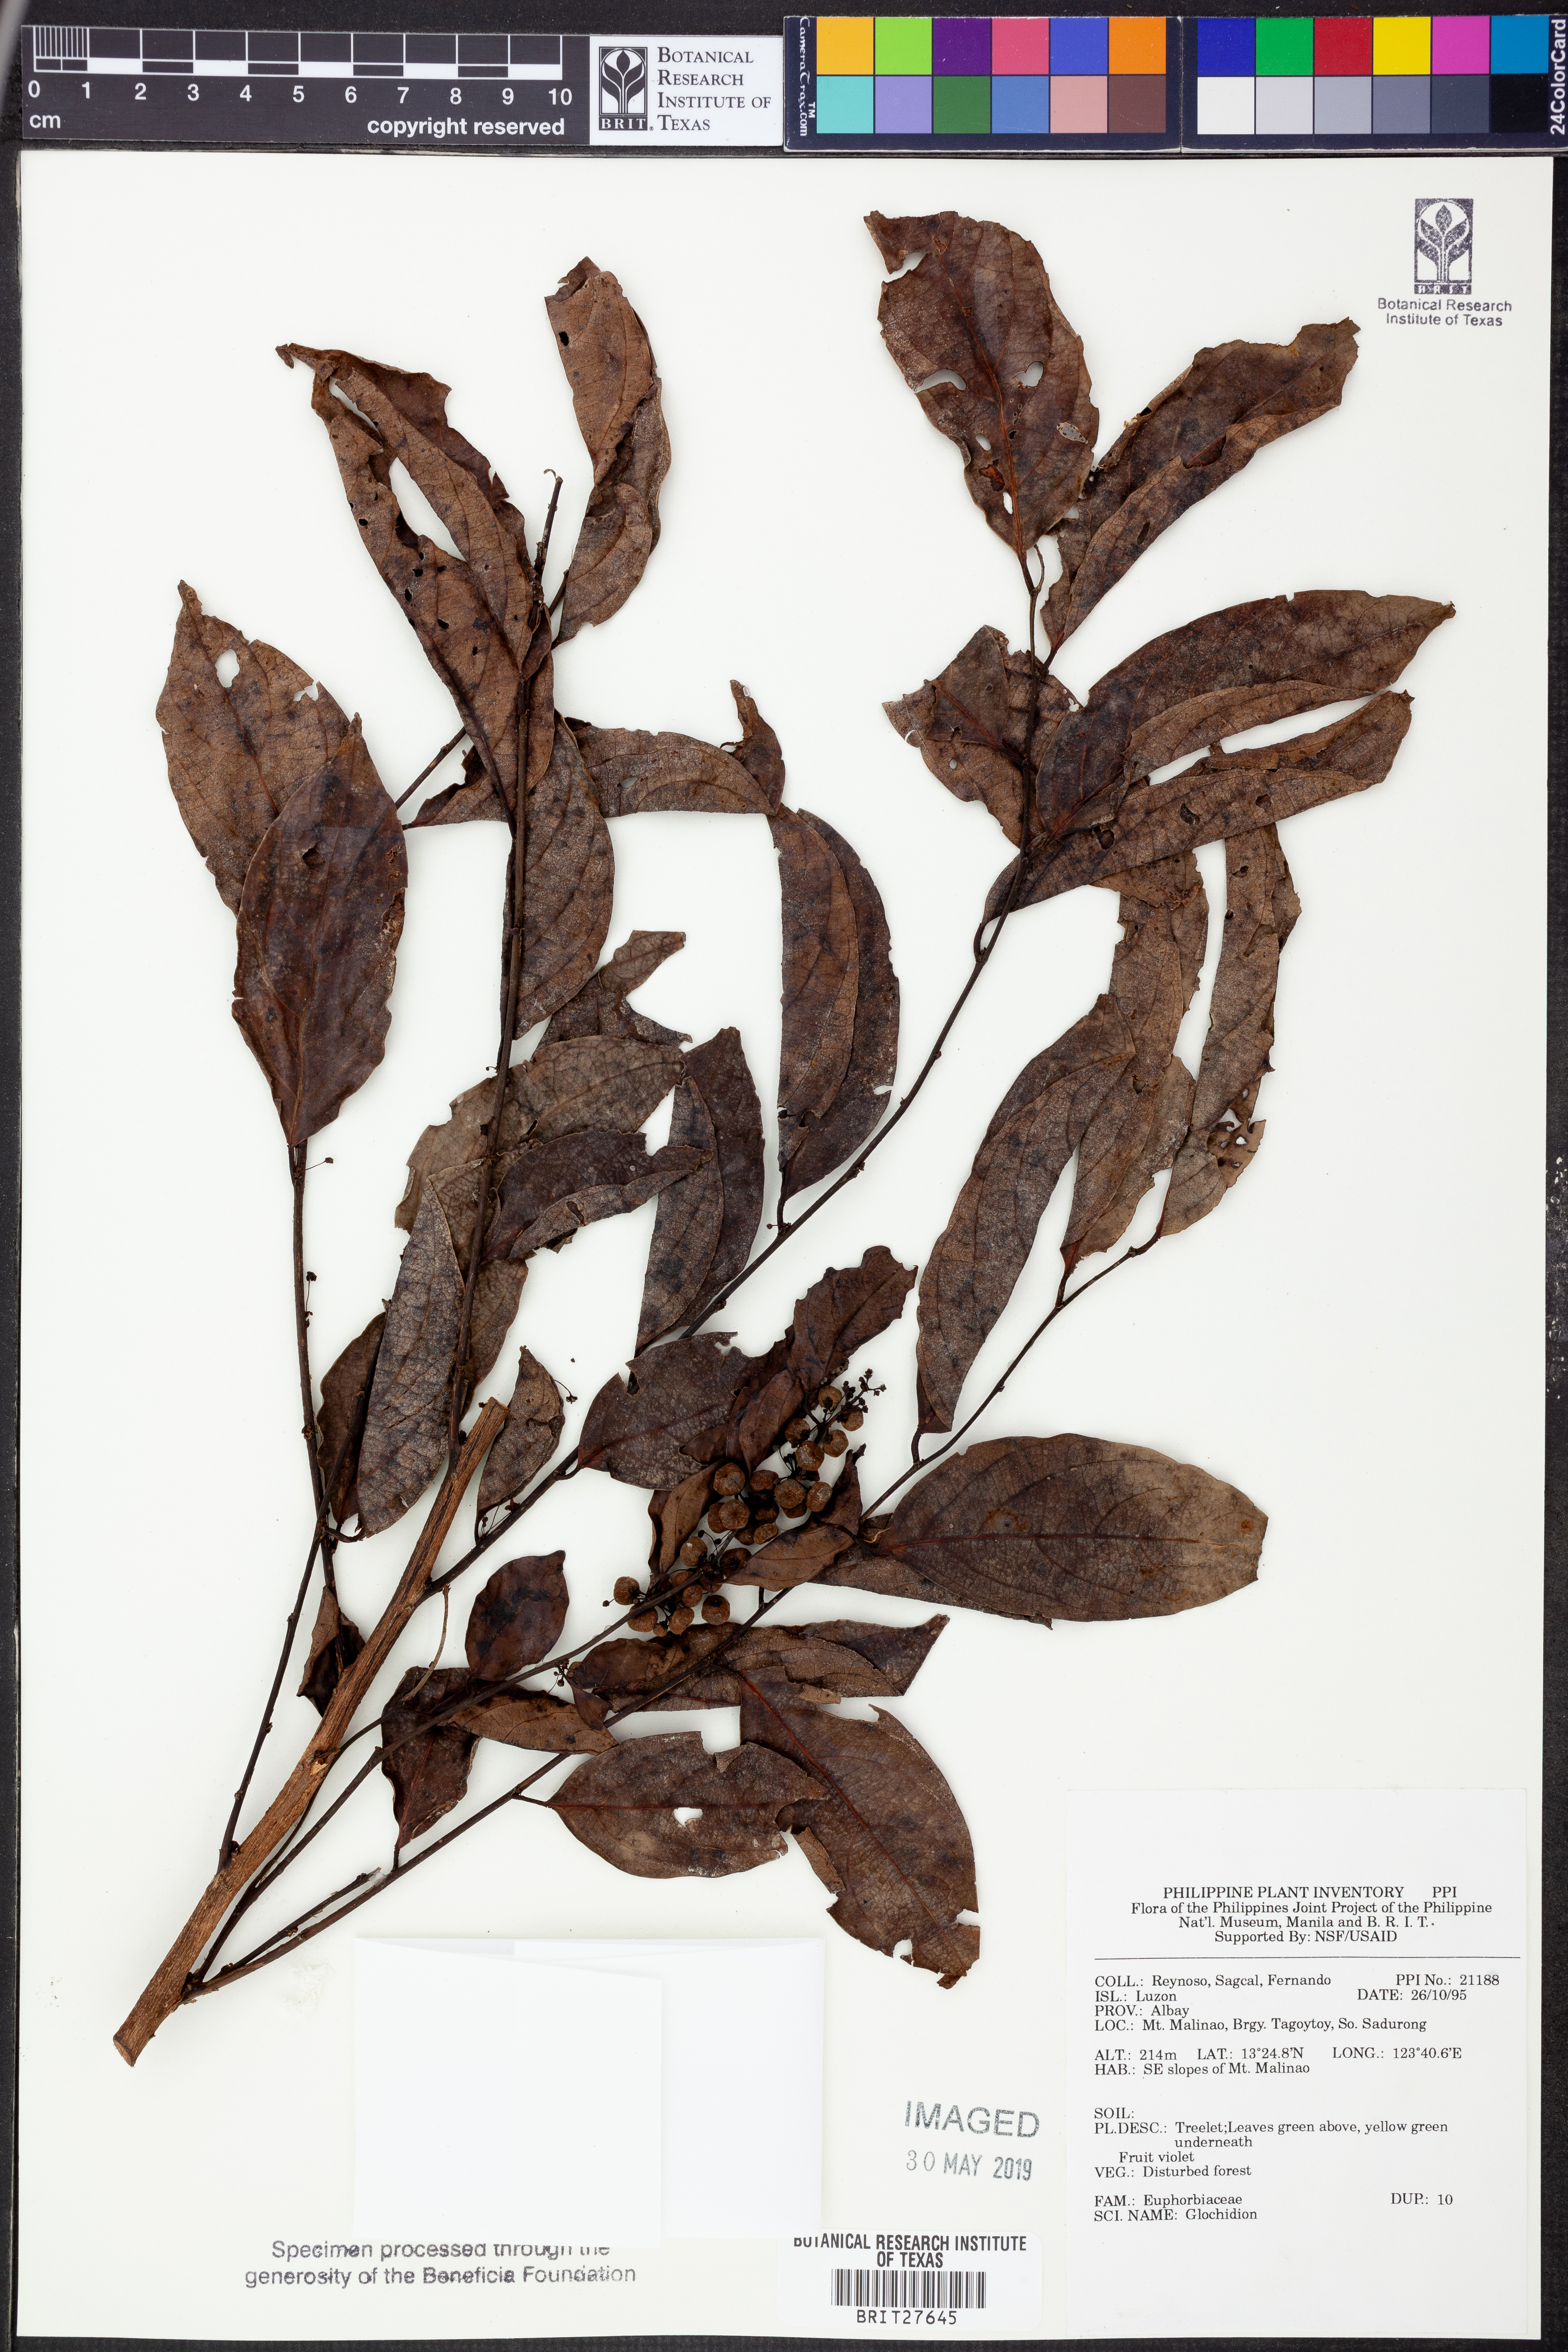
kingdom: Plantae
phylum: Tracheophyta
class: Magnoliopsida
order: Malpighiales
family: Phyllanthaceae
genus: Glochidion
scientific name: Glochidion
